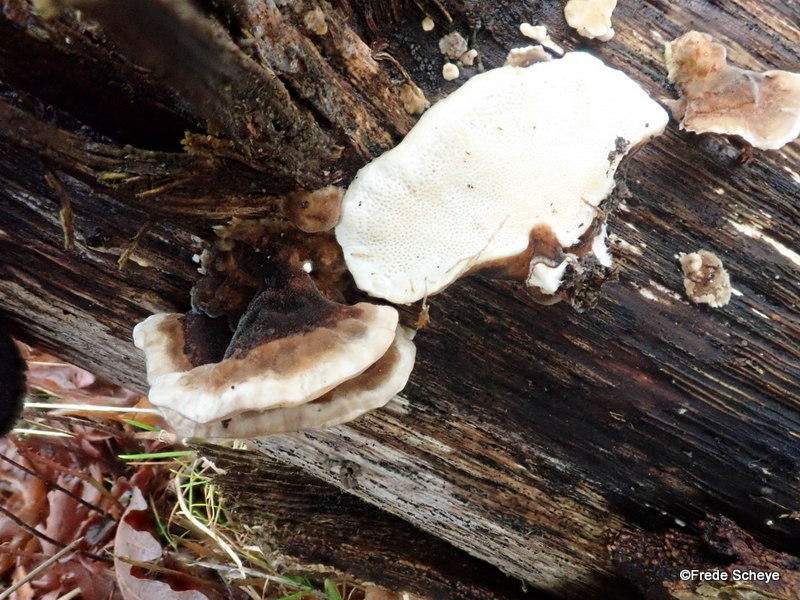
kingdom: Fungi
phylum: Basidiomycota
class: Agaricomycetes
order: Polyporales
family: Polyporaceae
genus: Trametes
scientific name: Trametes versicolor
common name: broget læderporesvamp
